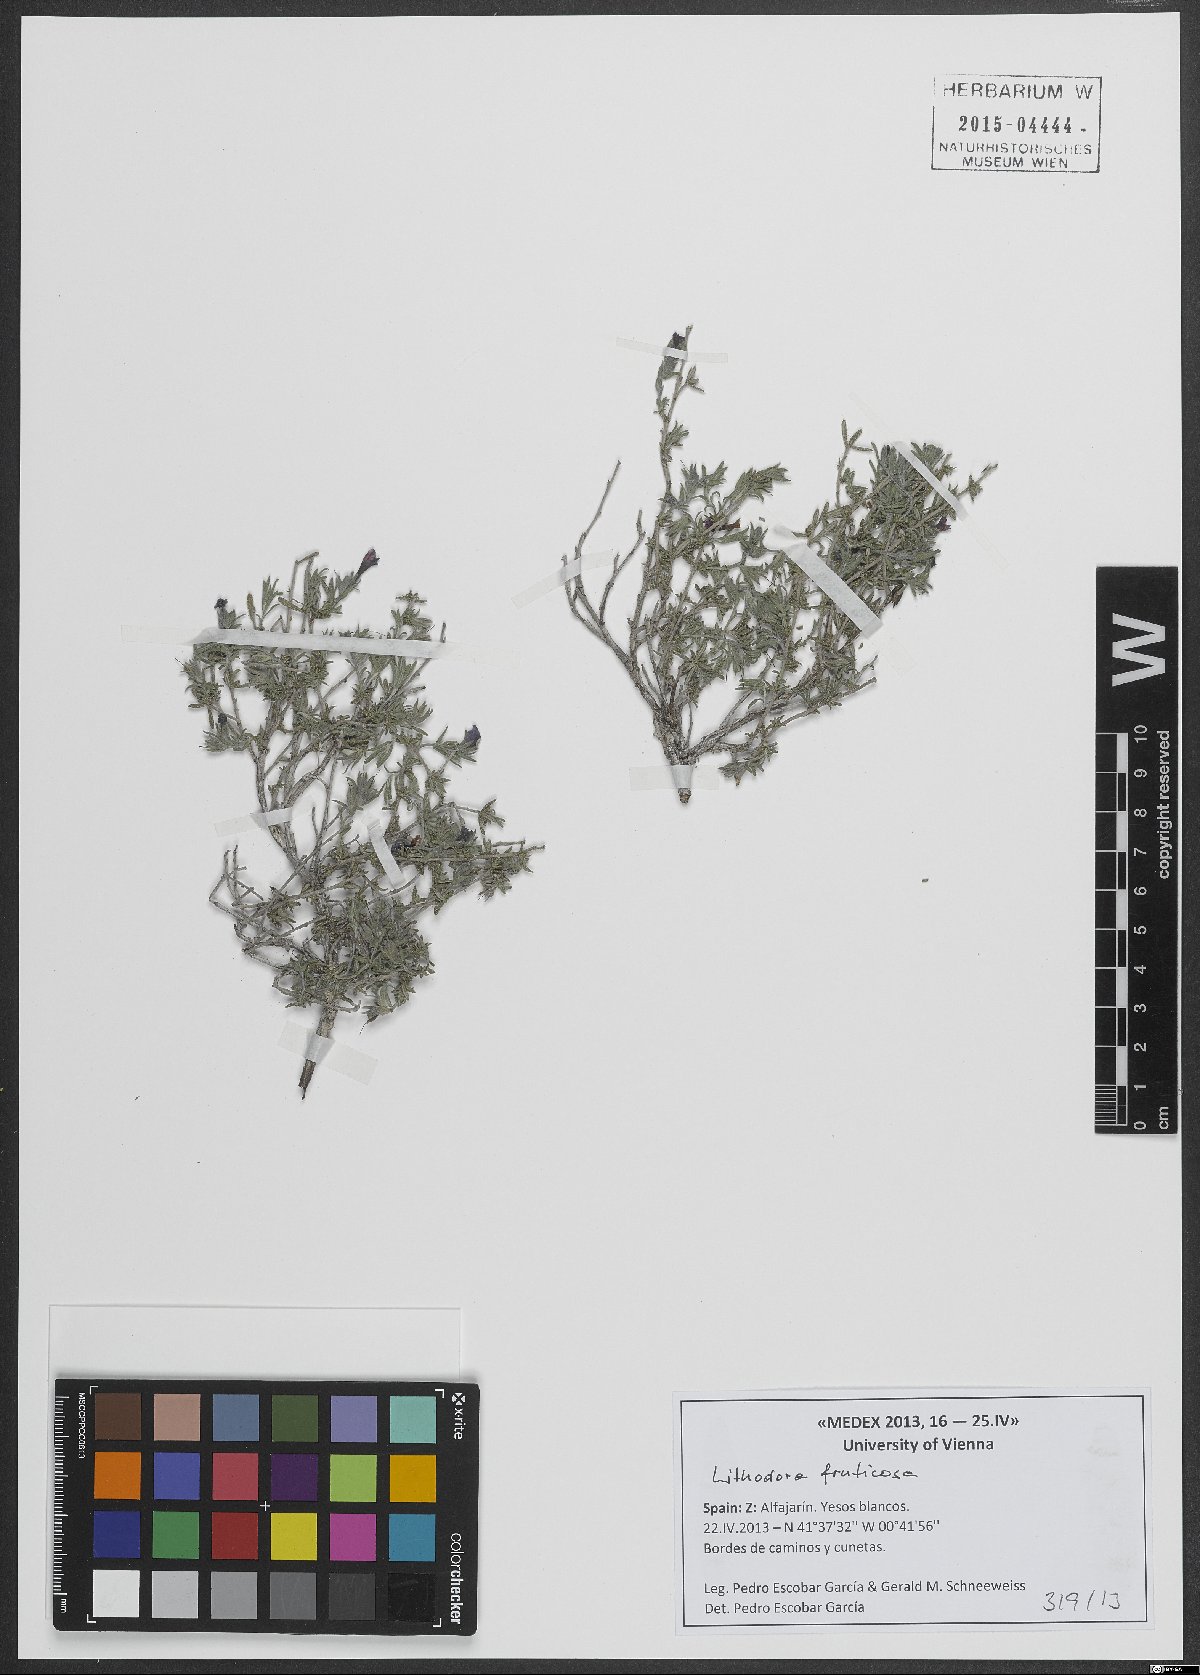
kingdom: Plantae
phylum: Tracheophyta
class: Magnoliopsida
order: Boraginales
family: Boraginaceae
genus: Lithodora
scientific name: Lithodora fruticosa
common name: Shrubby gromwell
